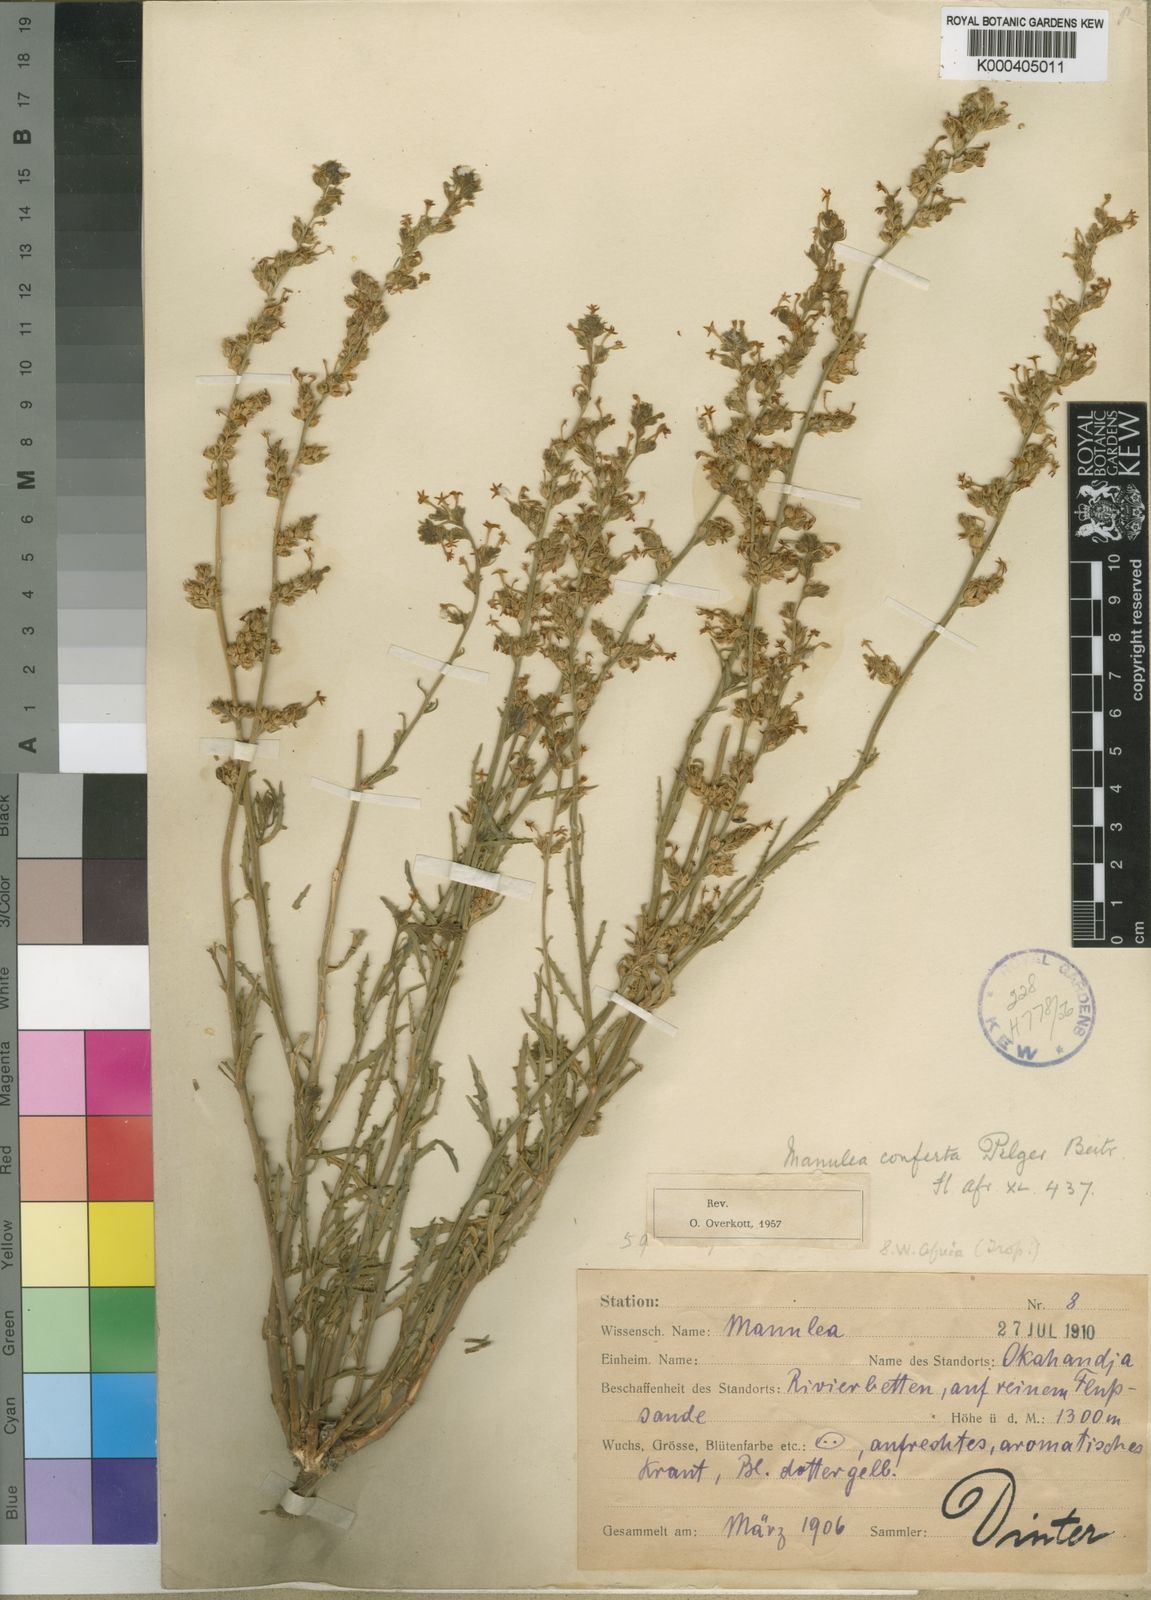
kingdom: Plantae
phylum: Tracheophyta
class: Magnoliopsida
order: Lamiales
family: Scrophulariaceae
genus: Manulea
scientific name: Manulea conferta
